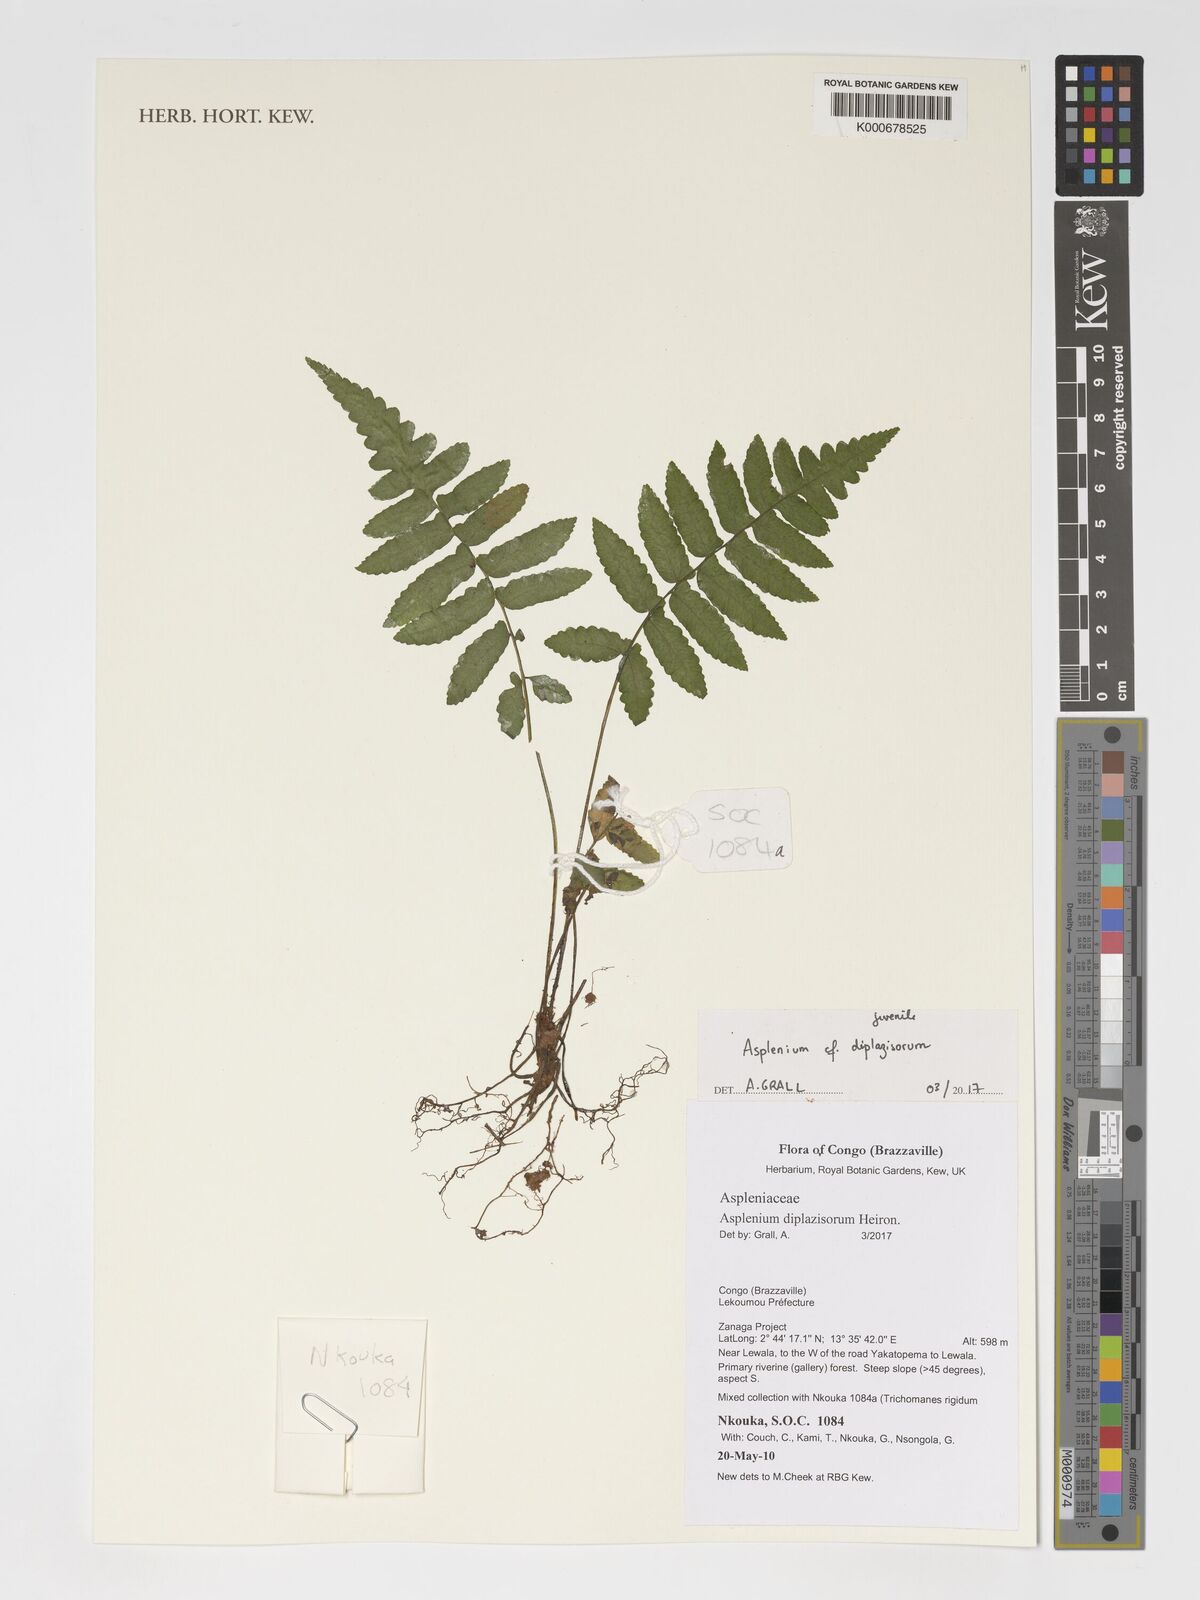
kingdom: Plantae
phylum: Tracheophyta
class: Polypodiopsida
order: Polypodiales
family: Aspleniaceae
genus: Asplenium
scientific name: Asplenium diplazisorum
